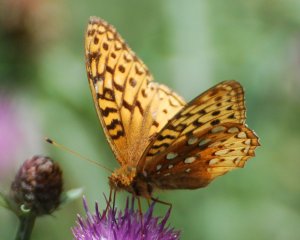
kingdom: Animalia
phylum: Arthropoda
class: Insecta
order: Lepidoptera
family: Nymphalidae
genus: Speyeria
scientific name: Speyeria cybele
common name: Great Spangled Fritillary
